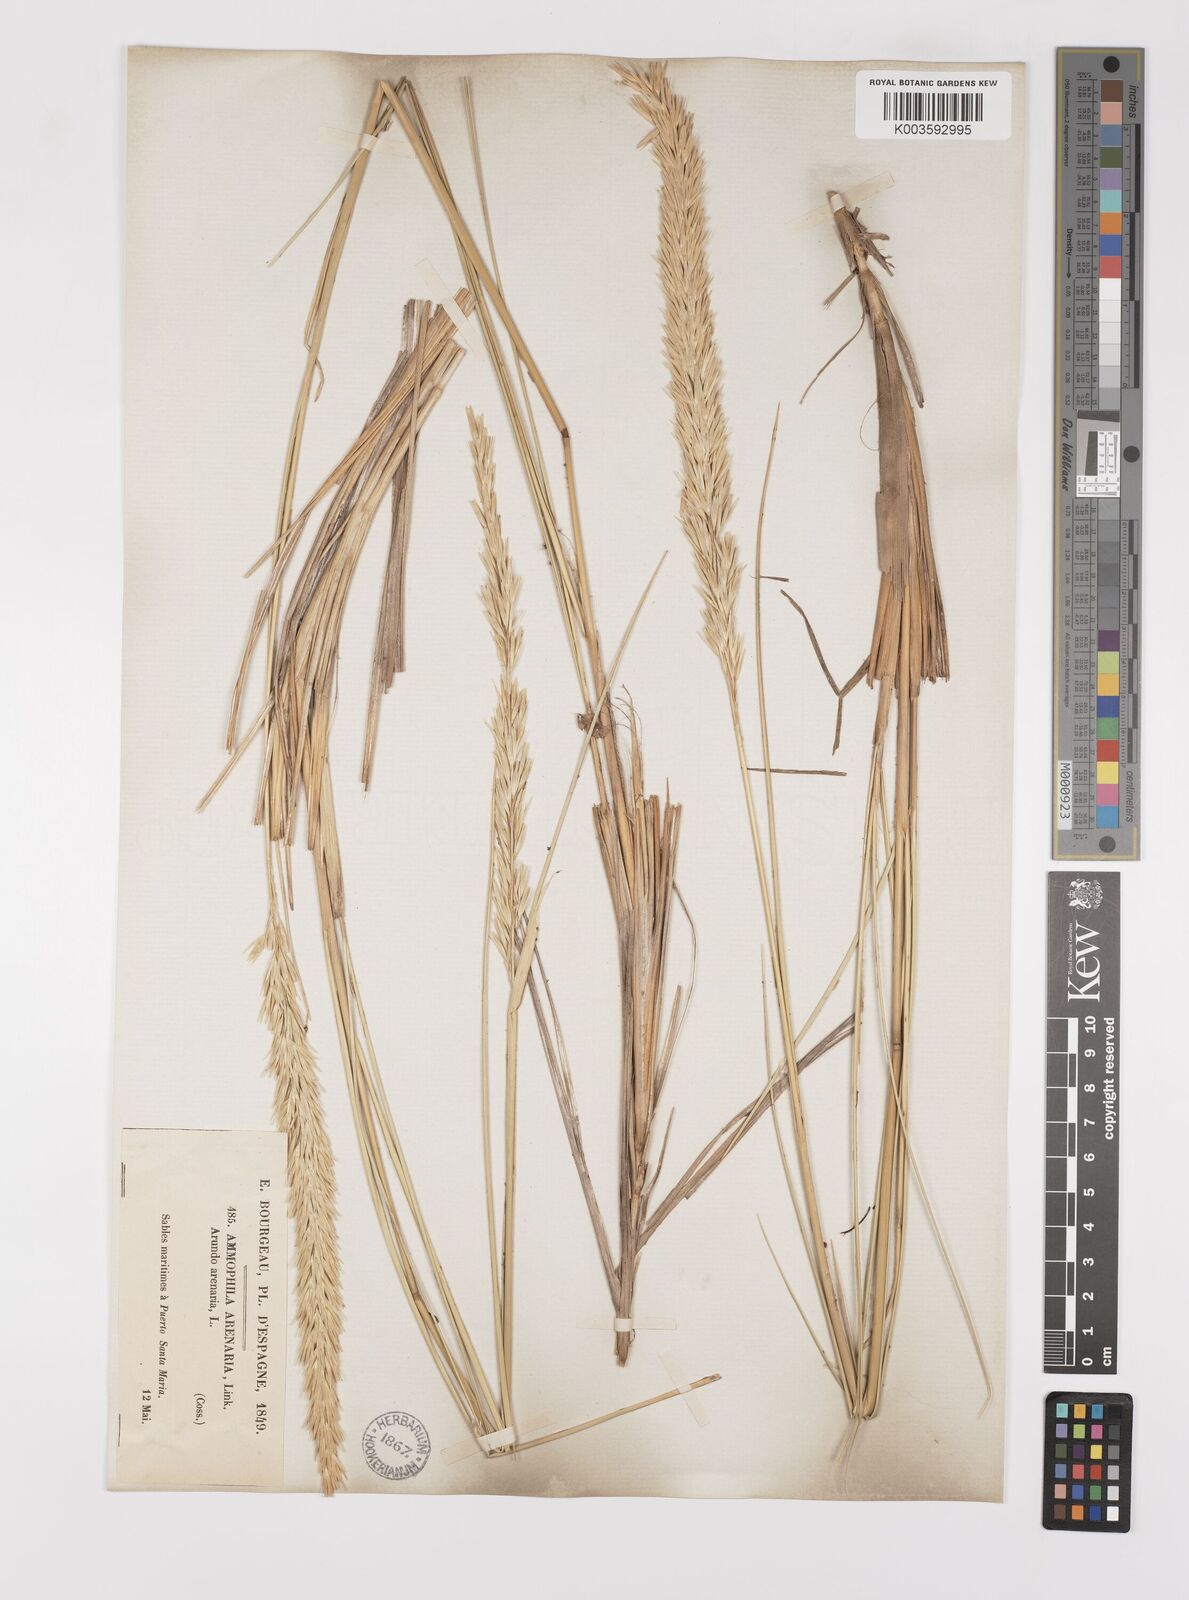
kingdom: Plantae
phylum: Tracheophyta
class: Liliopsida
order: Poales
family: Poaceae
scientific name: Poaceae
